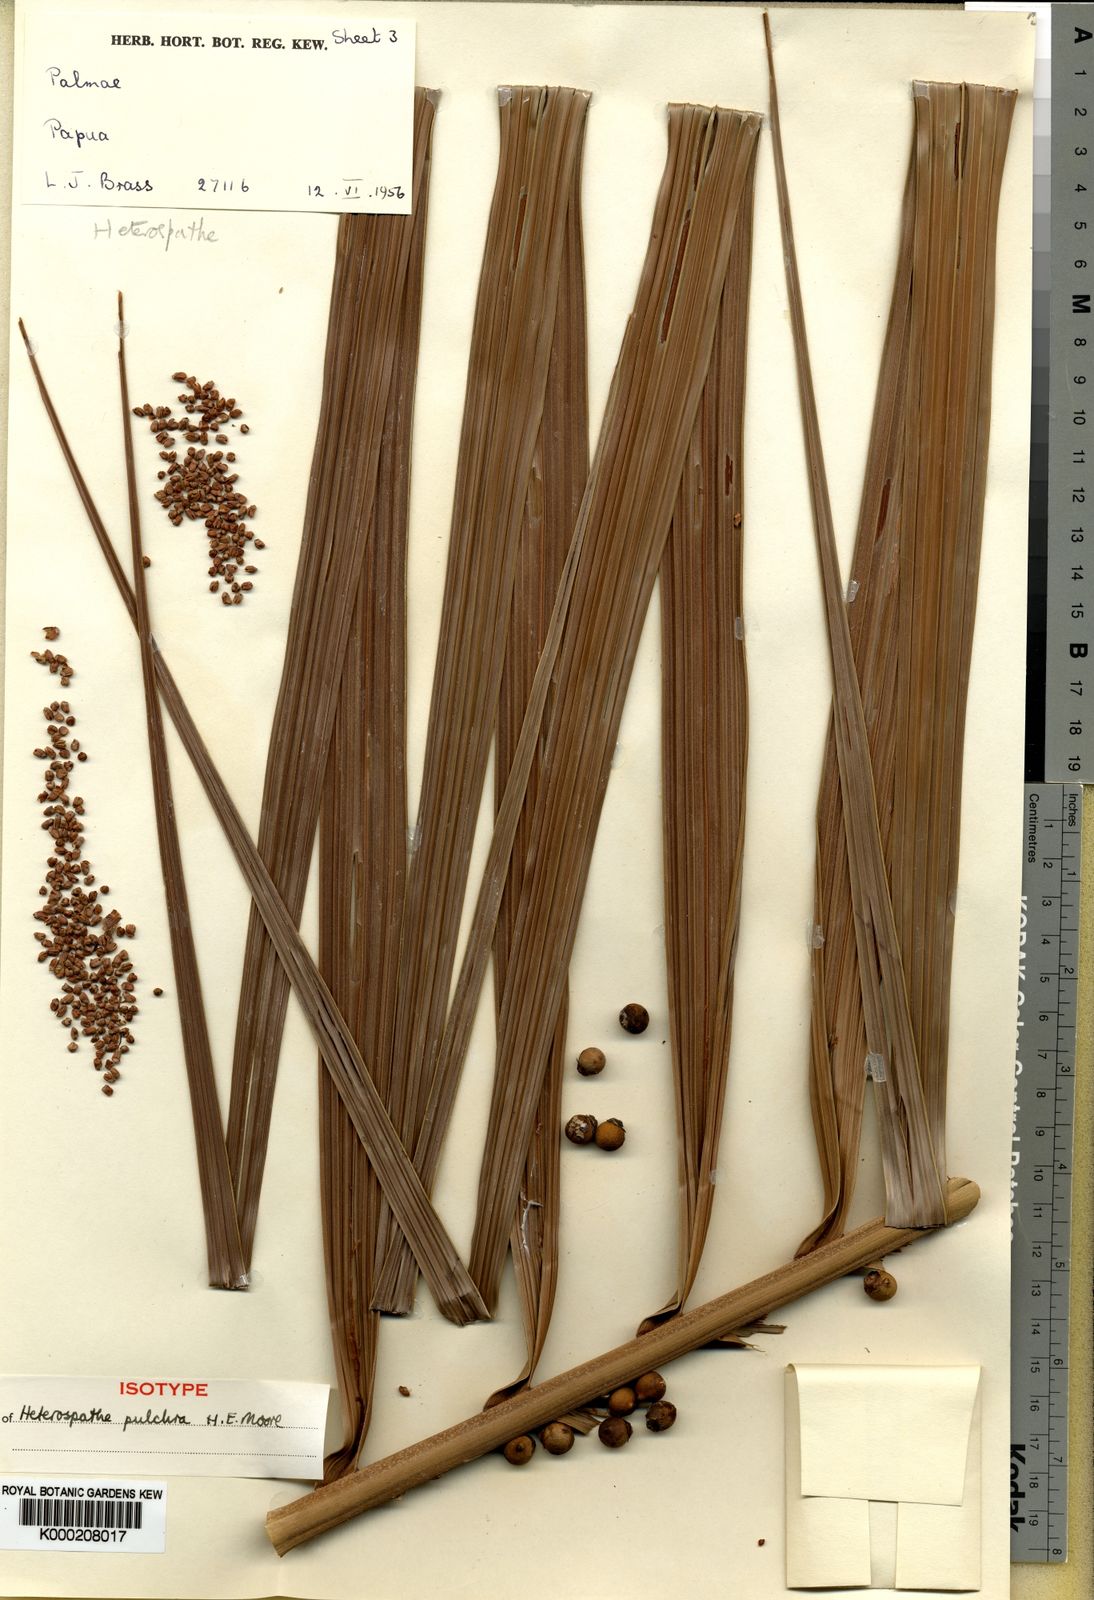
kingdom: Plantae
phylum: Tracheophyta
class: Liliopsida
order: Arecales
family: Arecaceae
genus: Heterospathe
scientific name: Heterospathe pulchra
